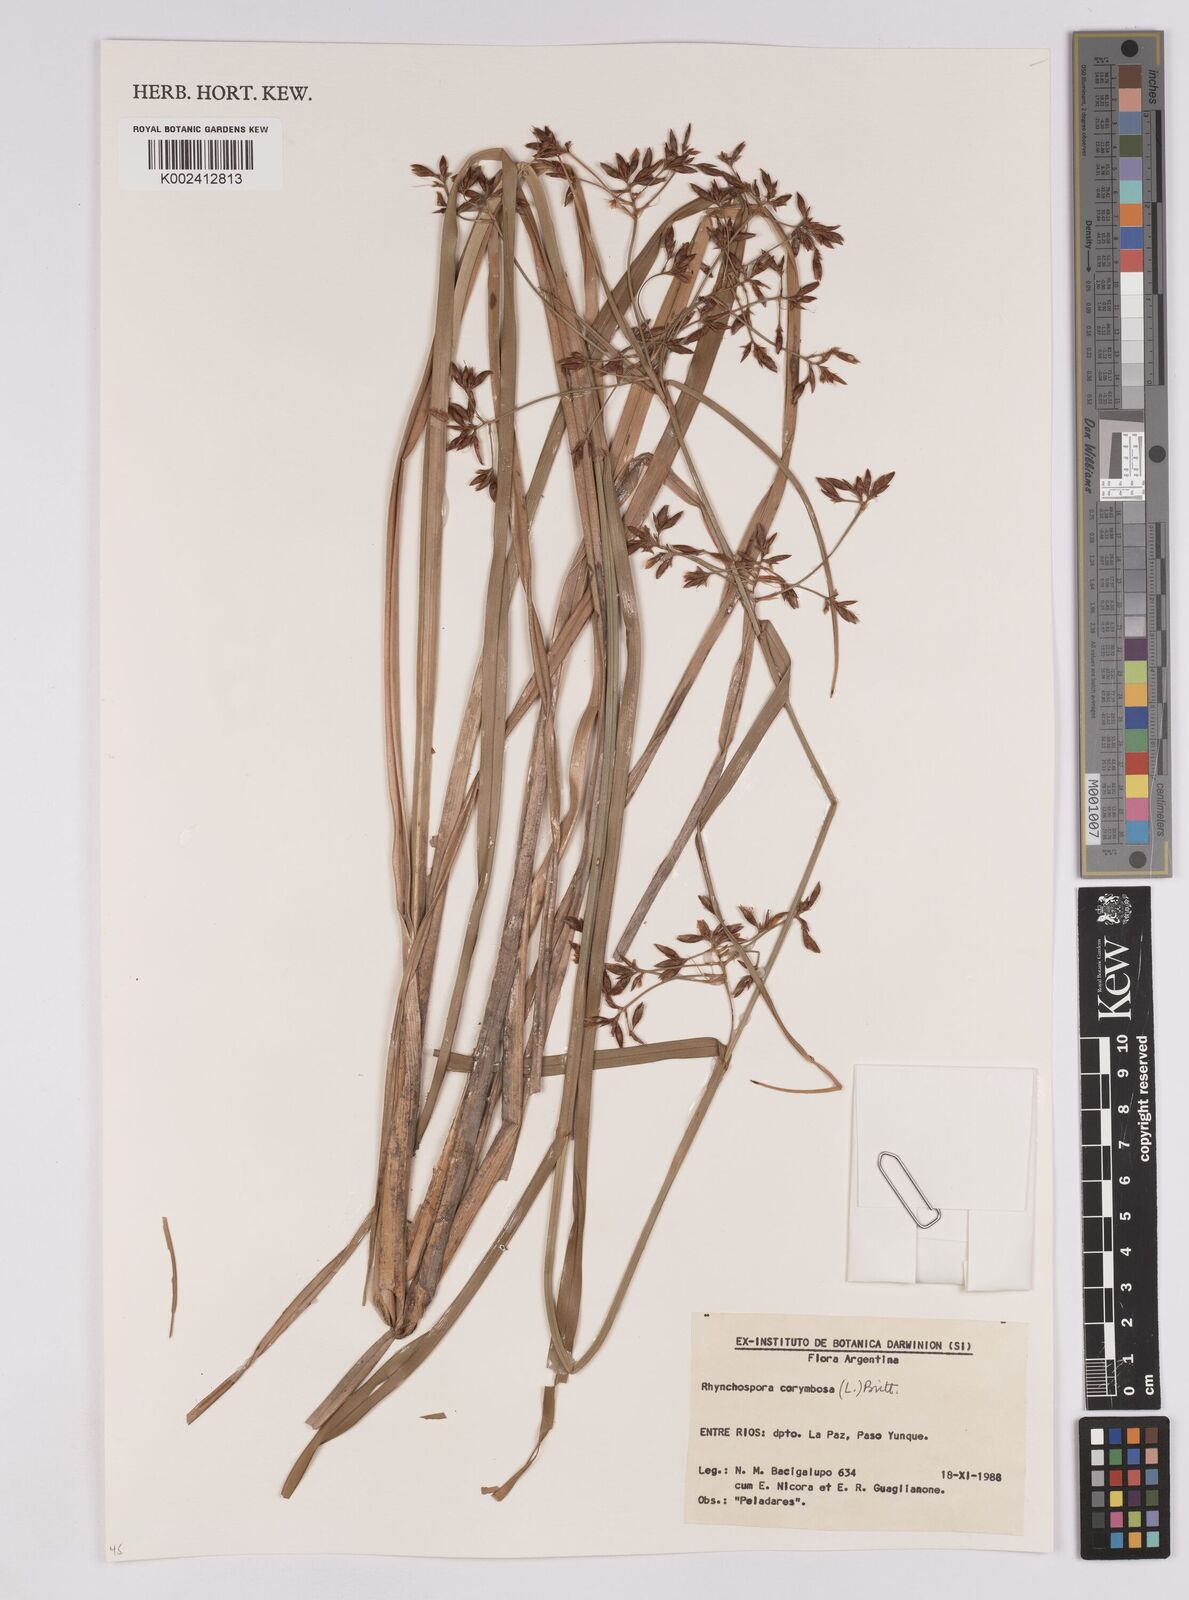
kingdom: Plantae
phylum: Tracheophyta
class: Liliopsida
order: Poales
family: Cyperaceae
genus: Rhynchospora
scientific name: Rhynchospora corymbosa
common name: Golden beak sedge
